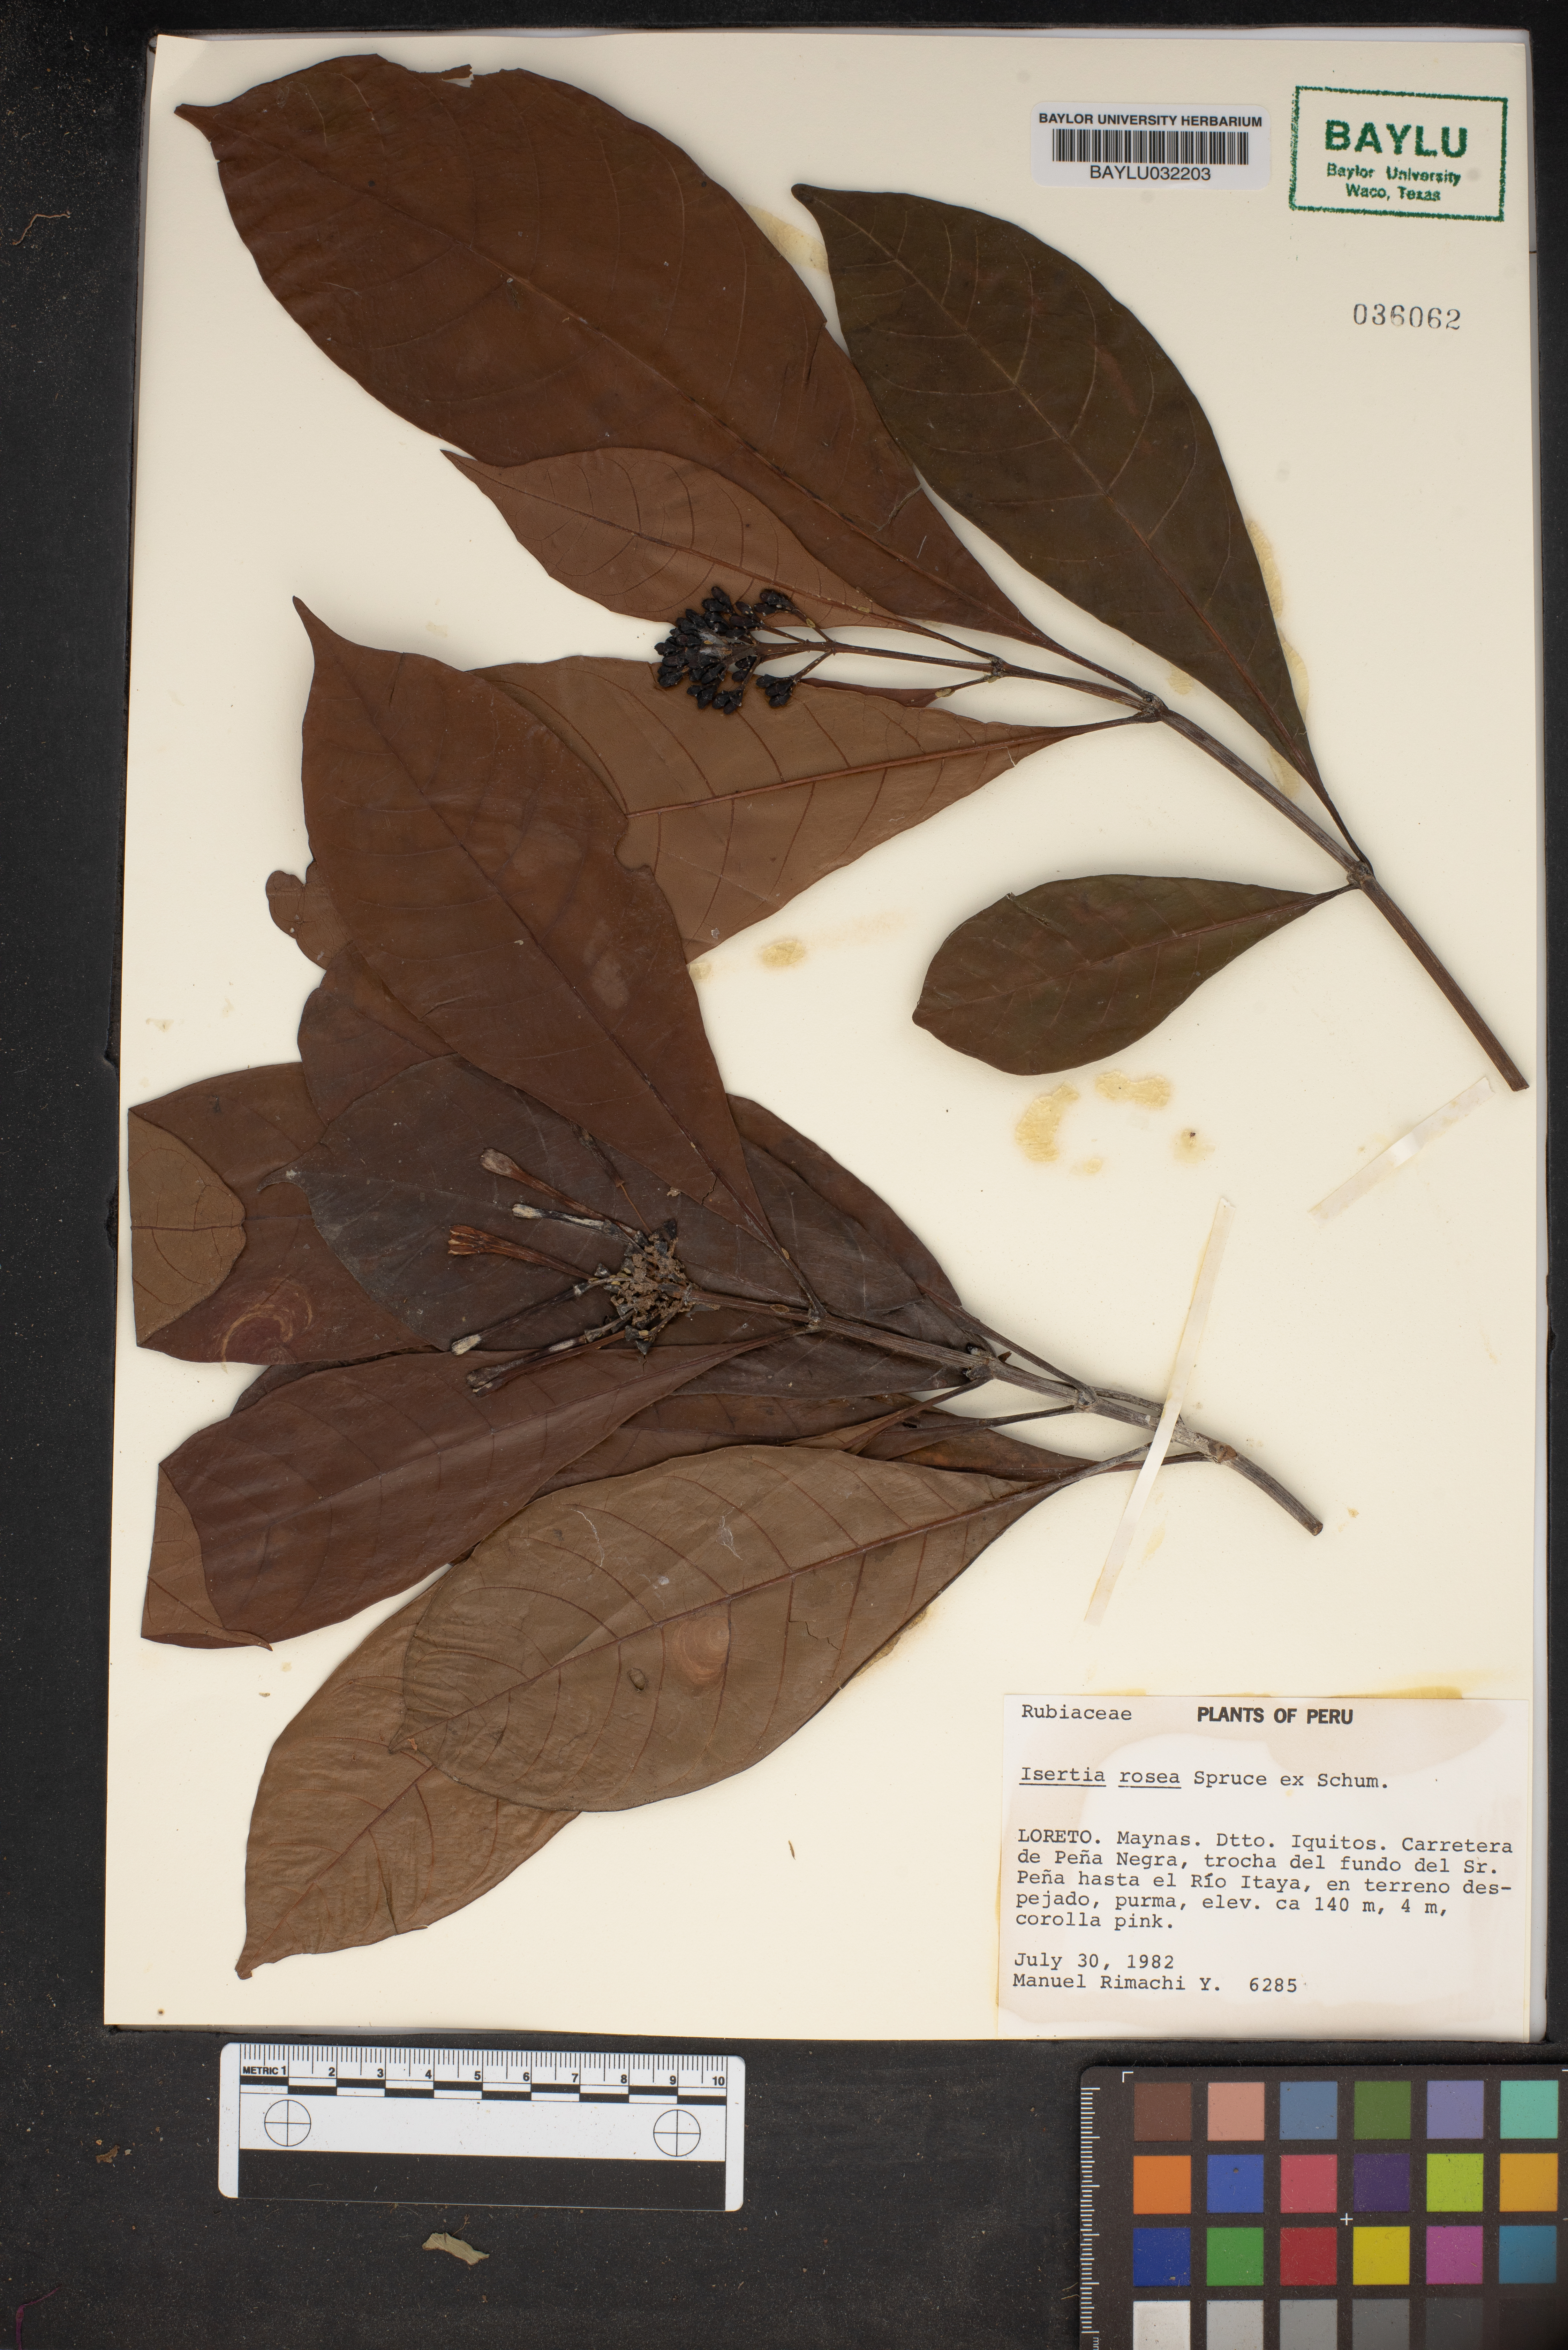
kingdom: Plantae
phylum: Tracheophyta
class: Magnoliopsida
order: Gentianales
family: Rubiaceae
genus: Isertia
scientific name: Isertia rosea
